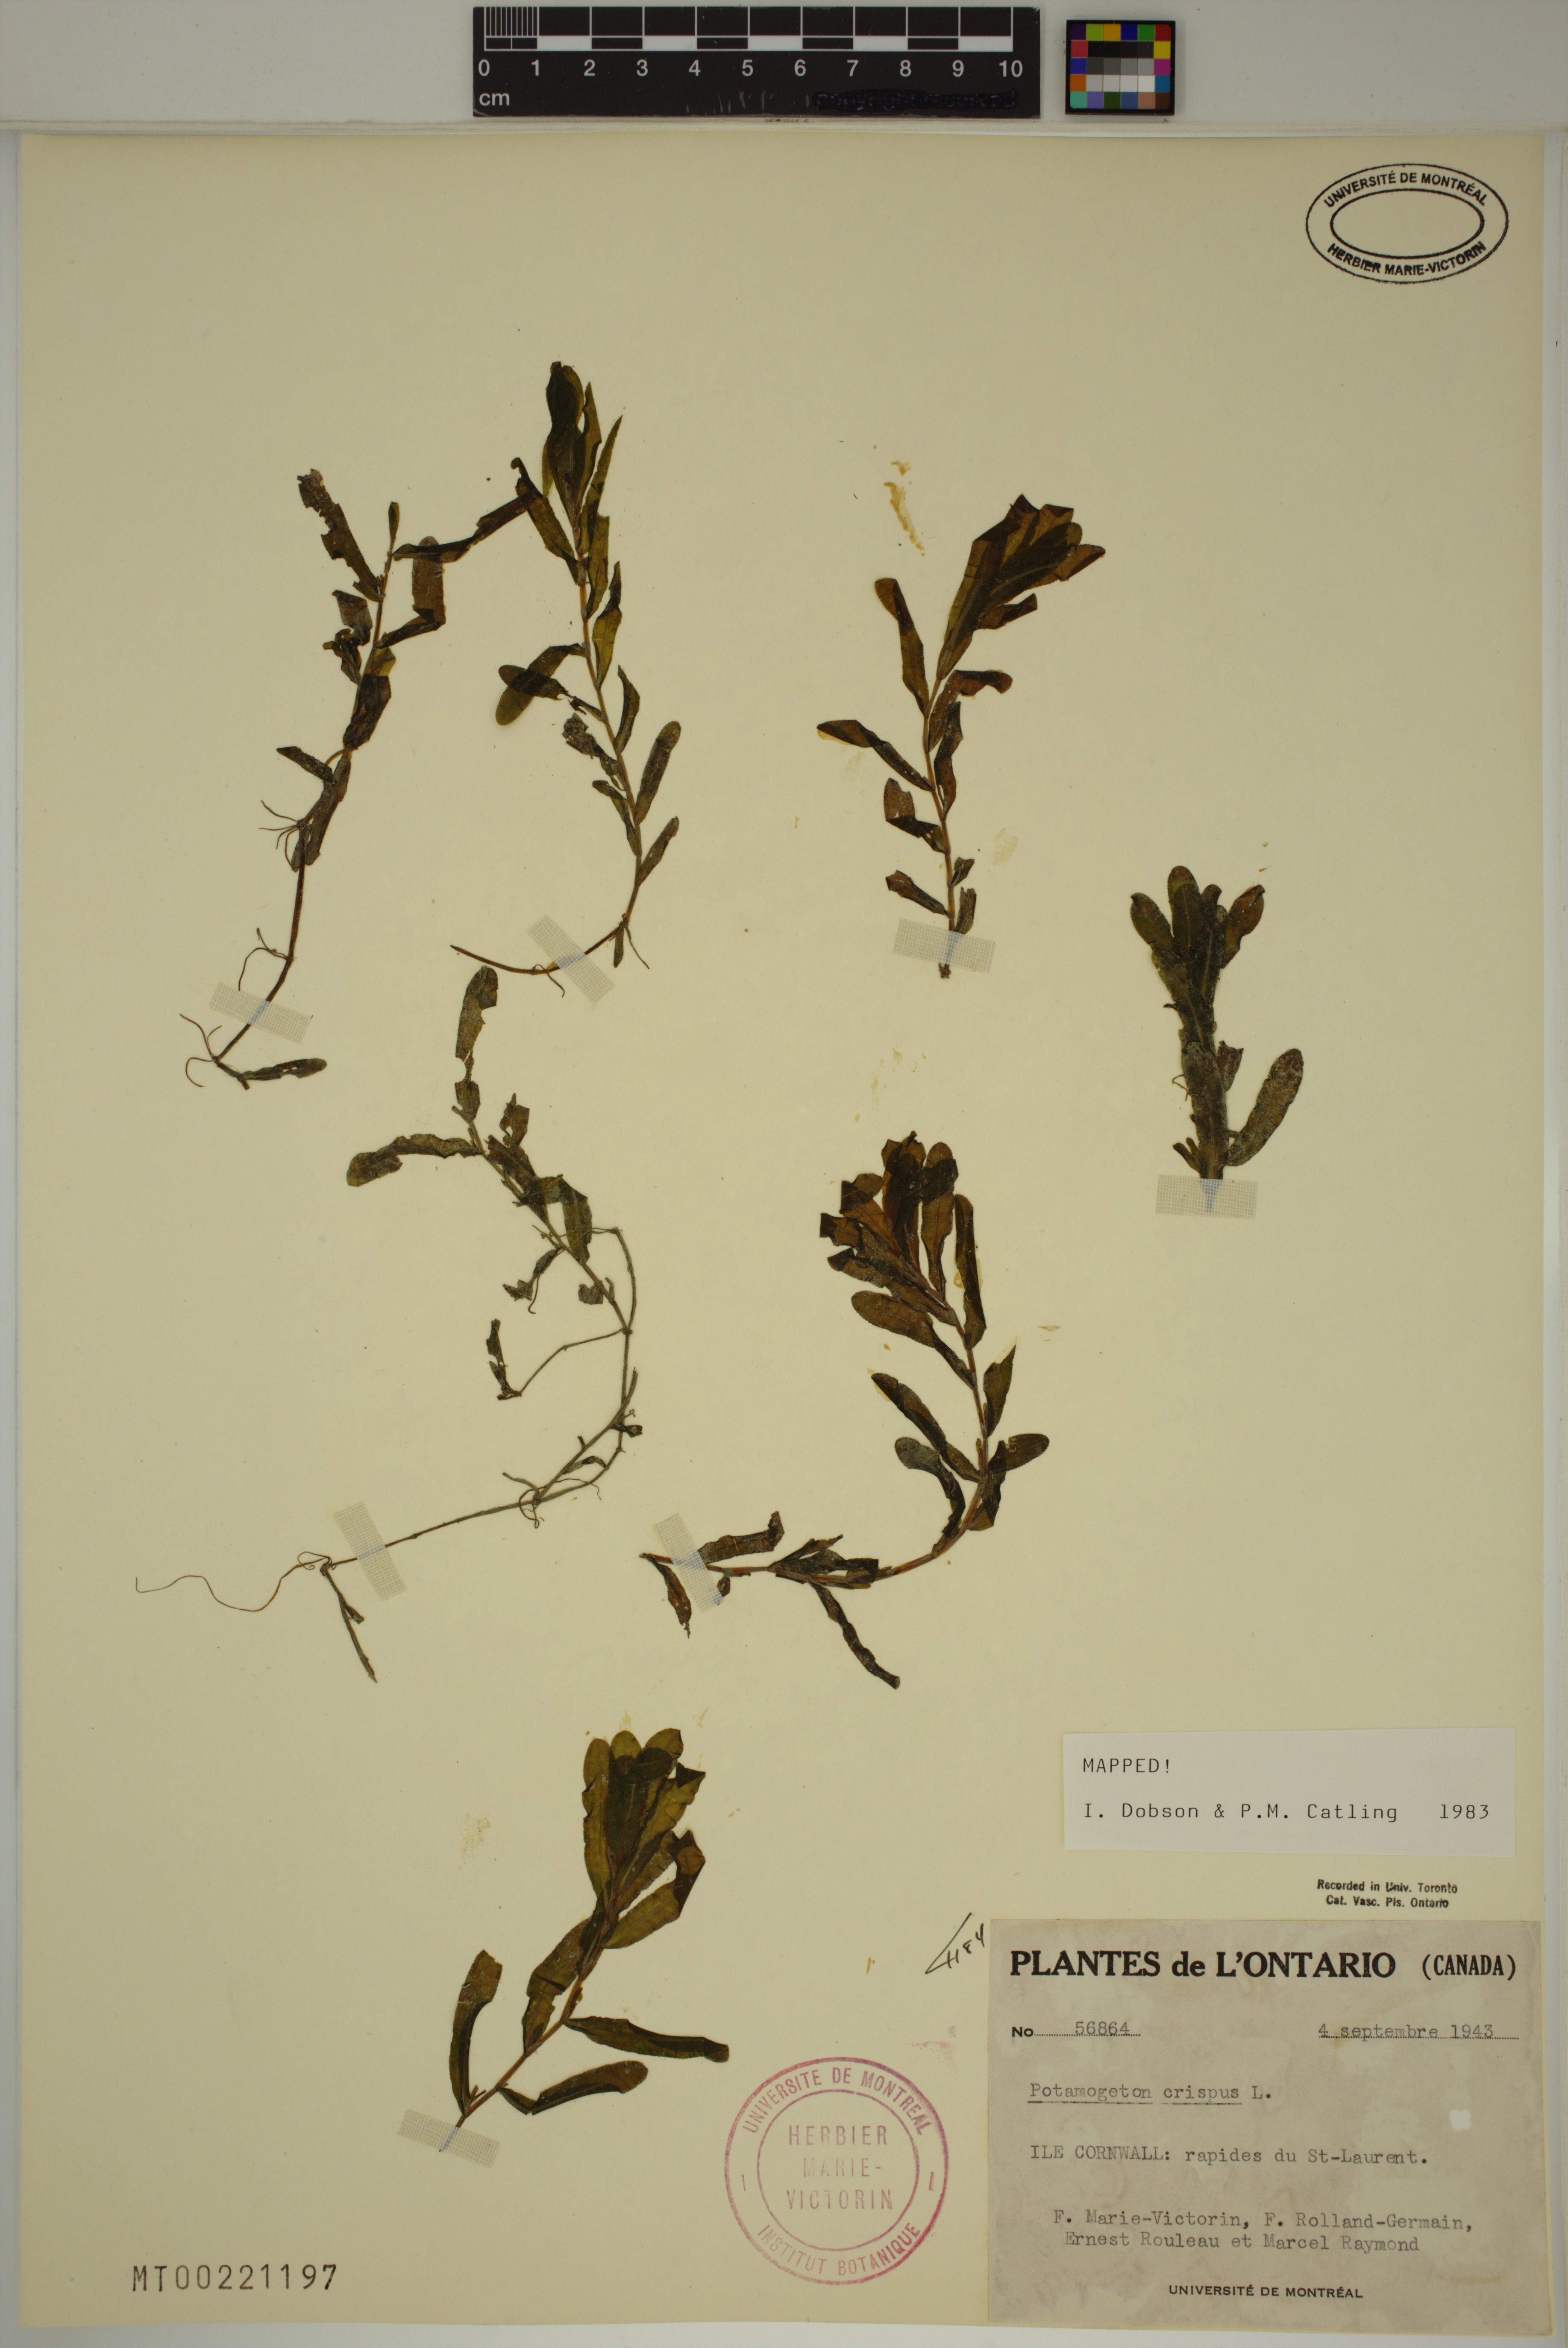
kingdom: Plantae
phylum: Tracheophyta
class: Liliopsida
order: Alismatales
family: Potamogetonaceae
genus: Potamogeton
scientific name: Potamogeton crispus
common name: Curled pondweed
